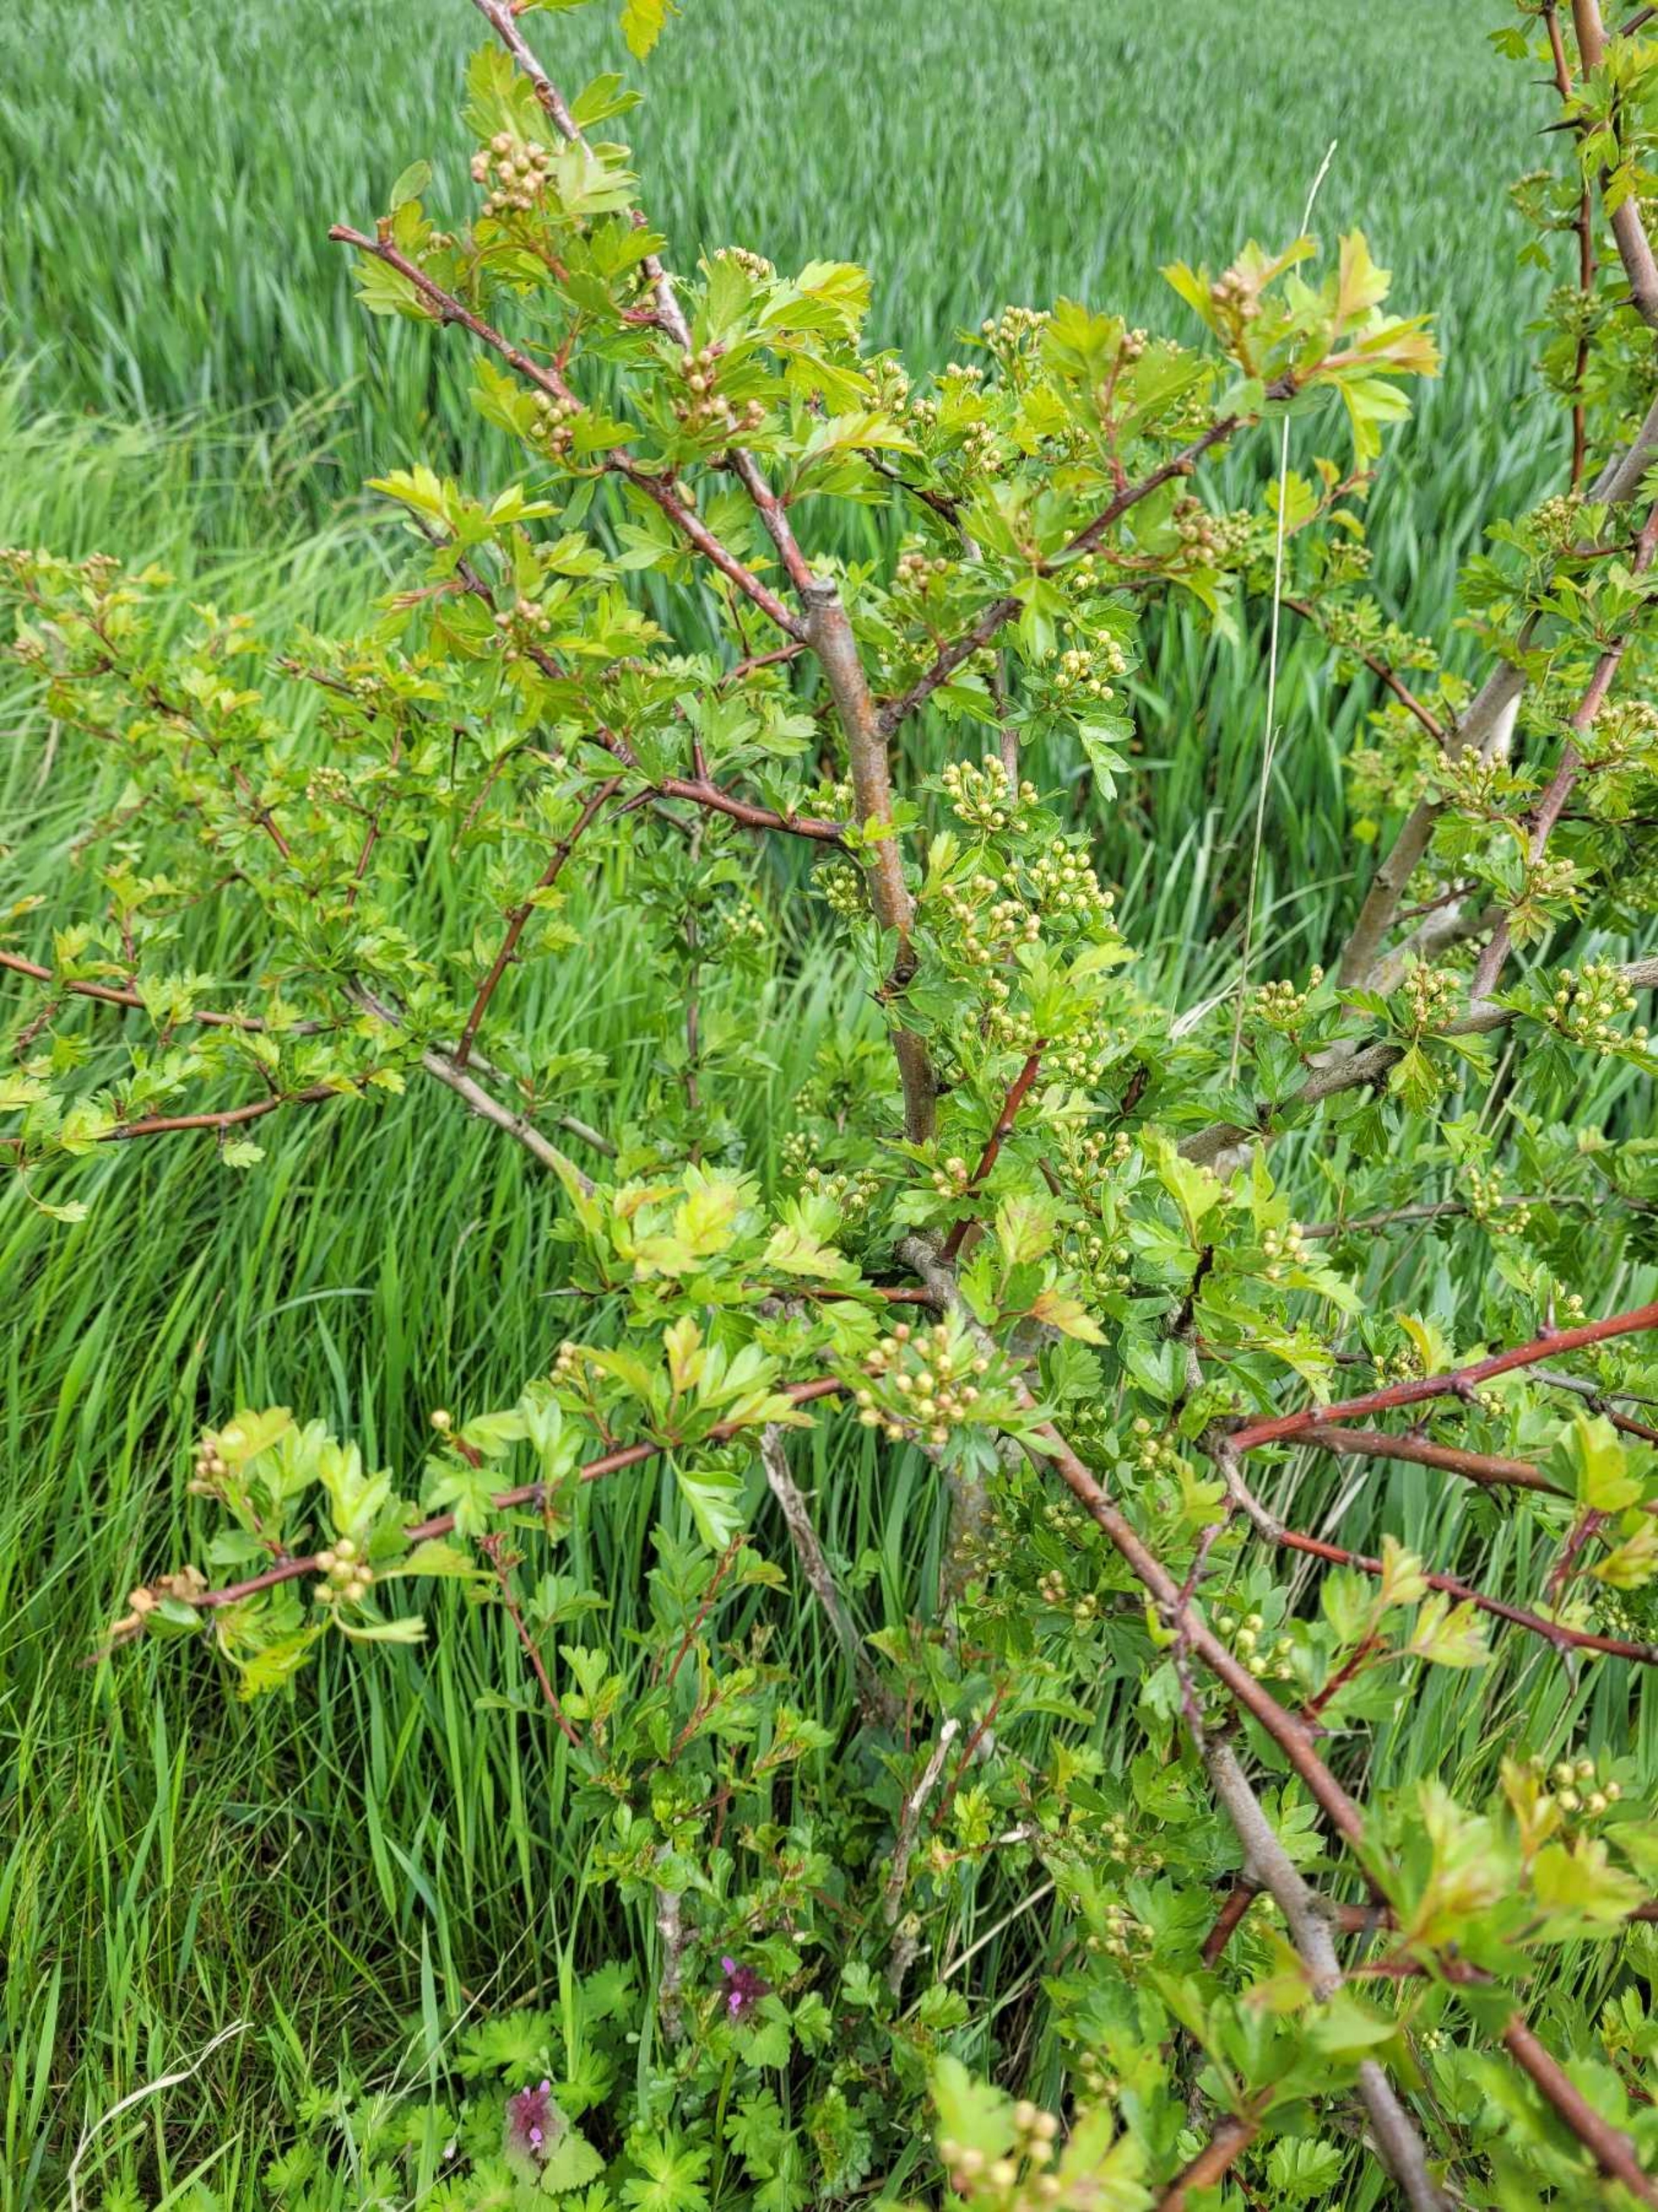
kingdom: Plantae
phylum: Tracheophyta
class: Magnoliopsida
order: Rosales
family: Rosaceae
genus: Crataegus
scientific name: Crataegus monogyna
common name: Engriflet hvidtjørn
